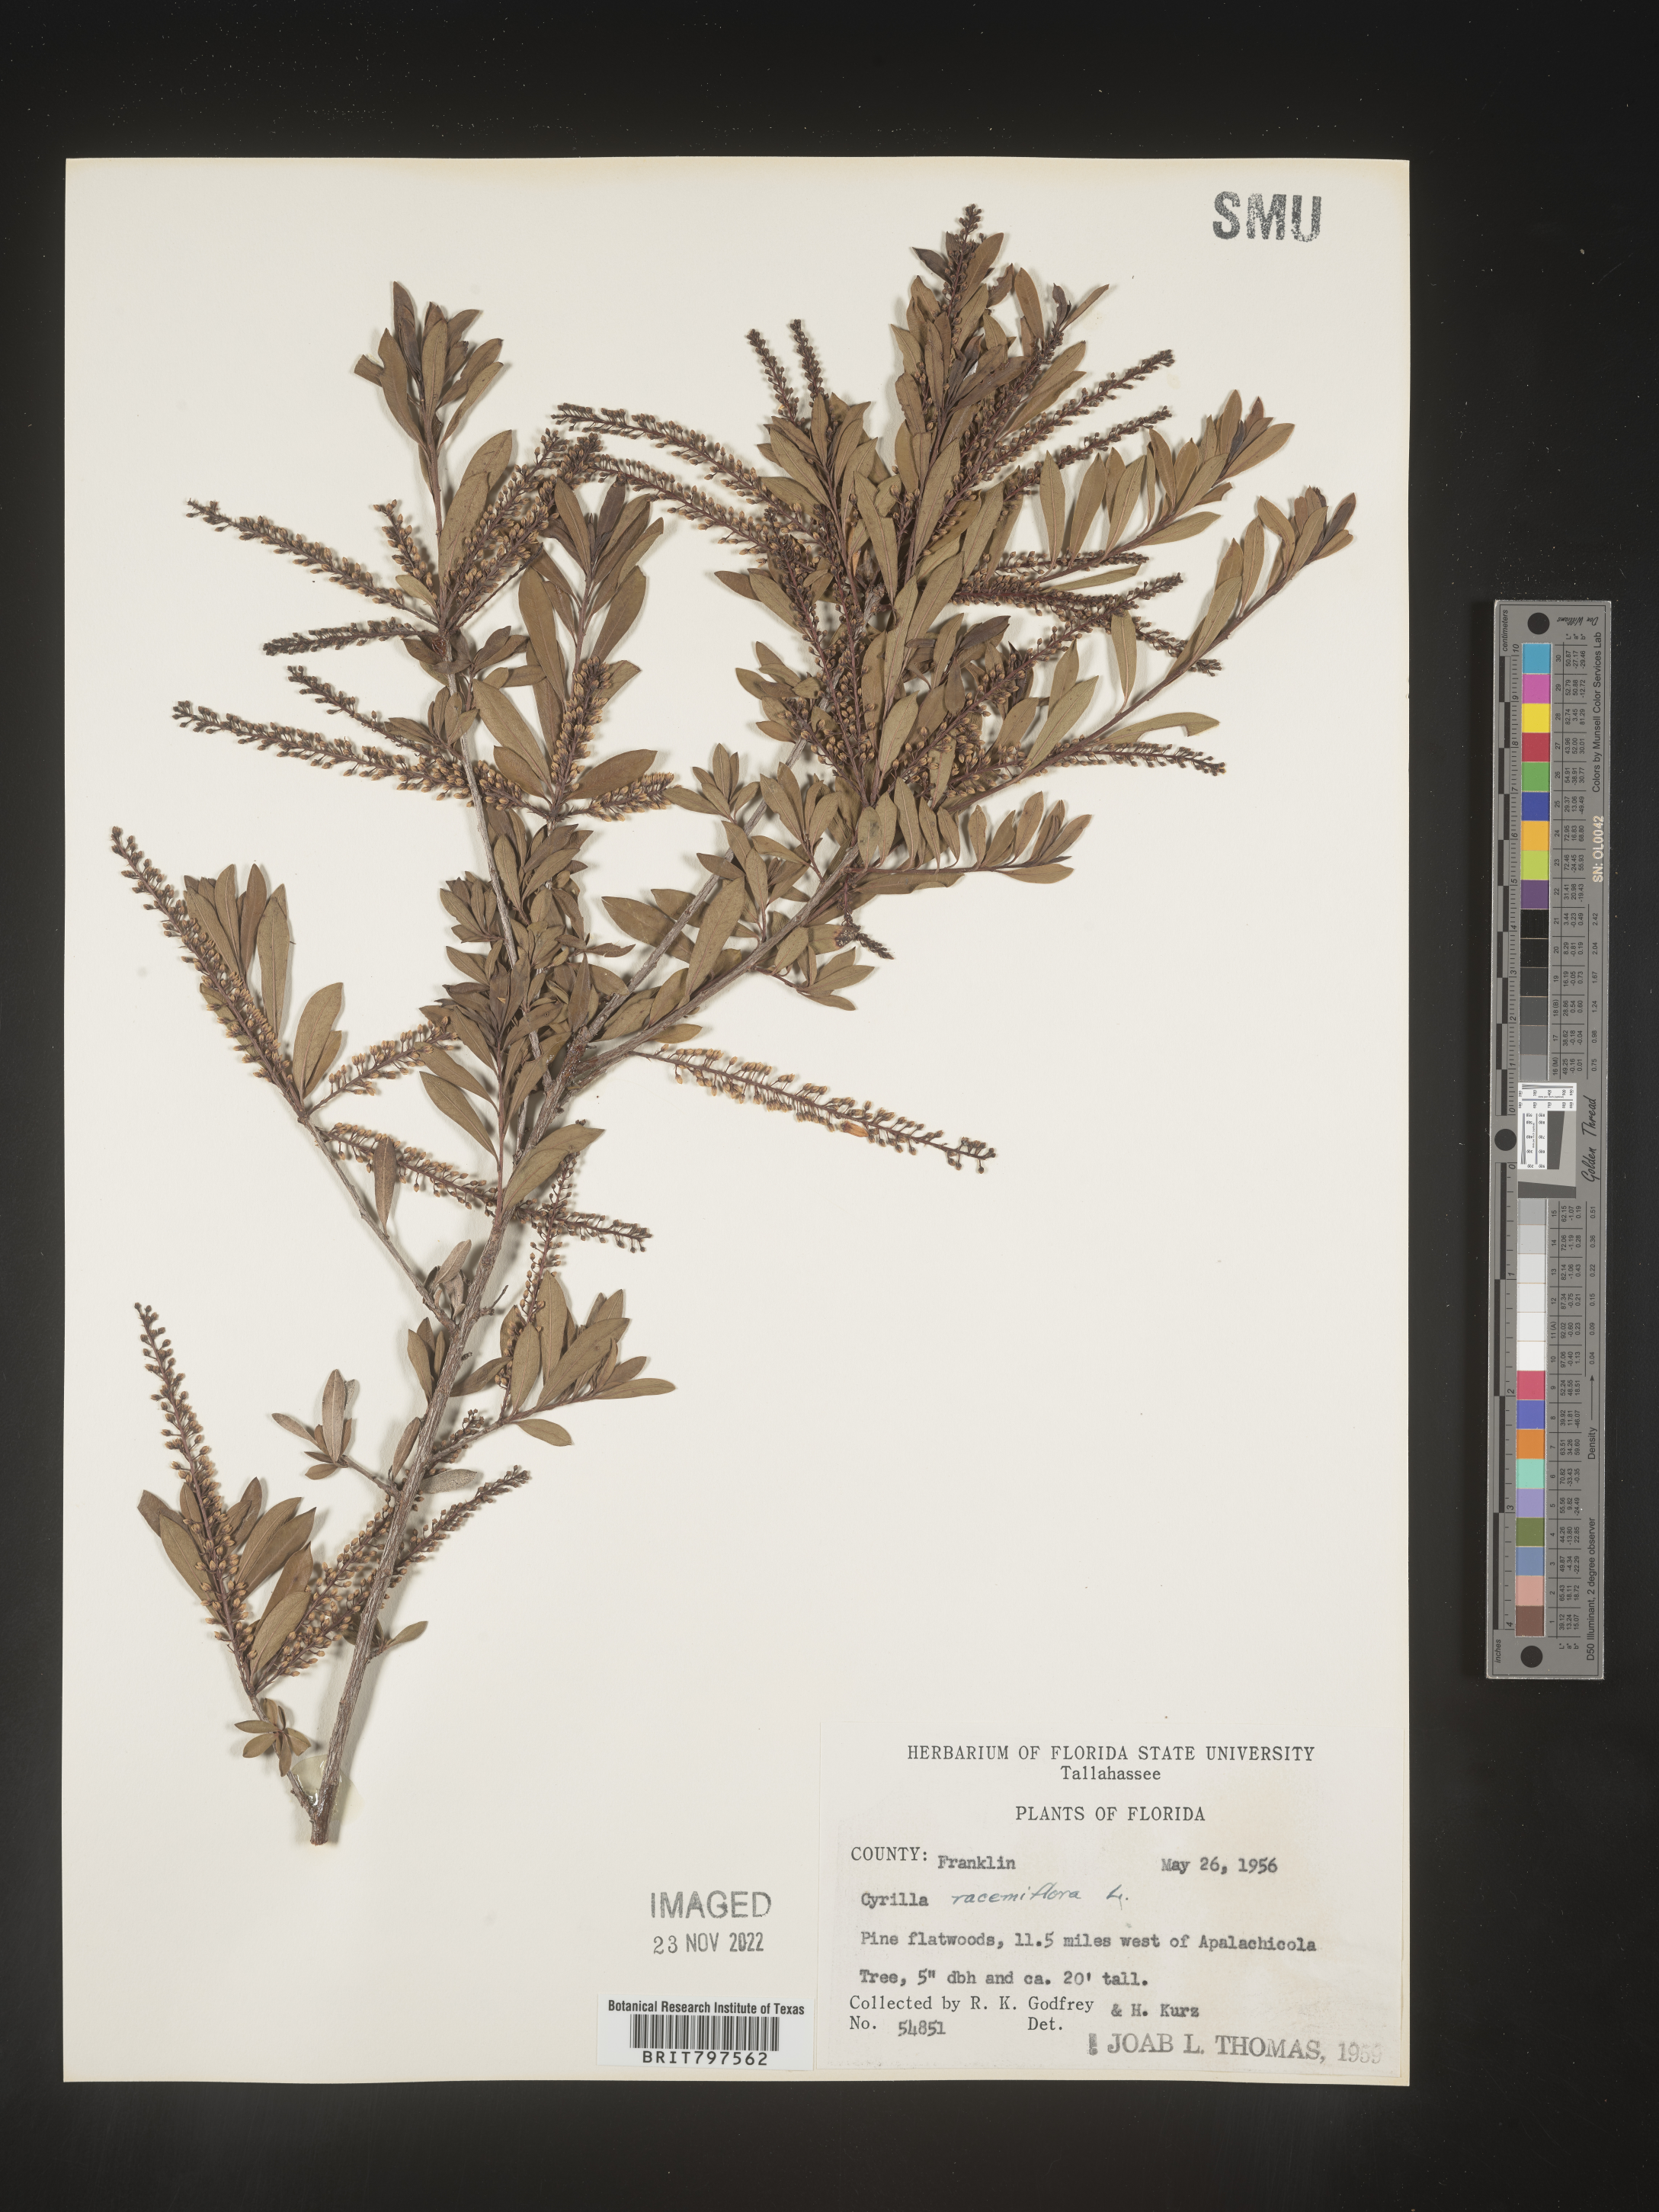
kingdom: Plantae
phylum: Tracheophyta
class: Magnoliopsida
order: Ericales
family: Cyrillaceae
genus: Cyrilla
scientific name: Cyrilla racemiflora
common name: Black titi
